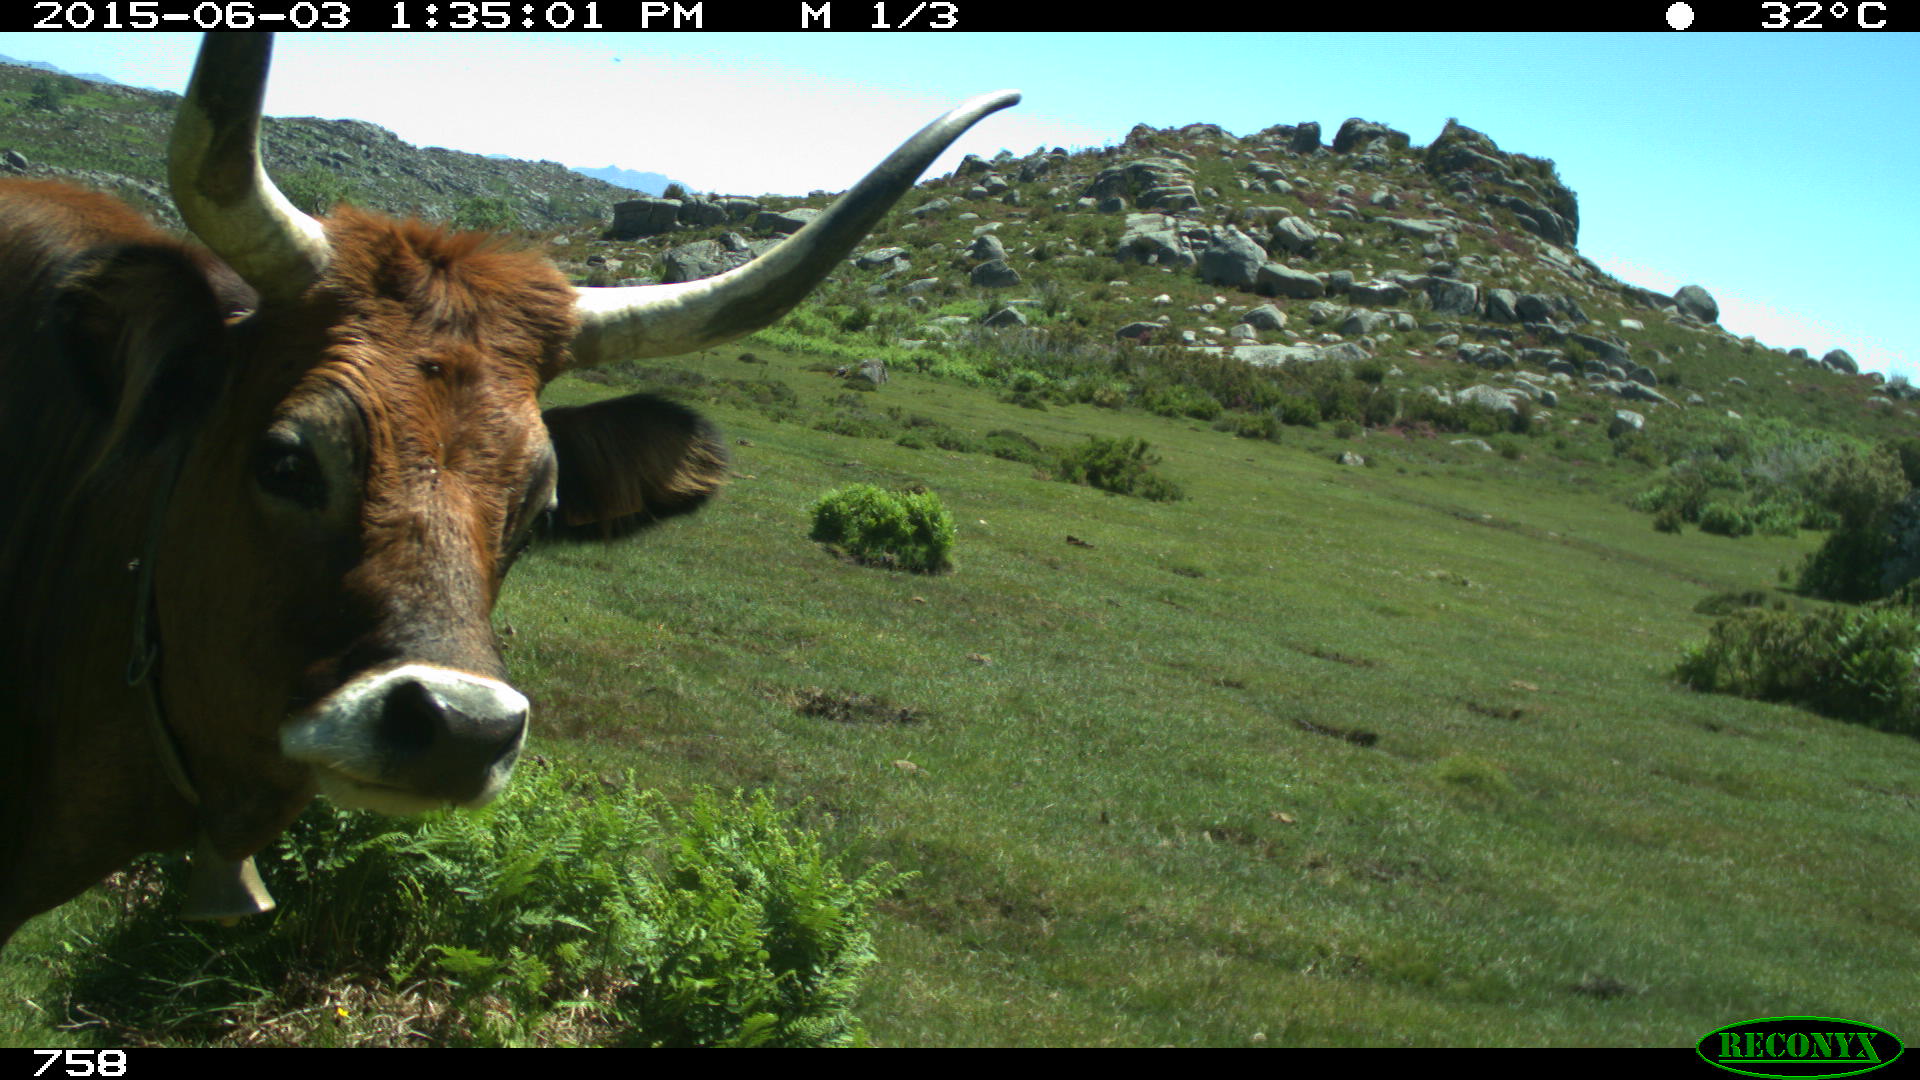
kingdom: Animalia
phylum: Chordata
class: Mammalia
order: Artiodactyla
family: Bovidae
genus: Bos
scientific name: Bos taurus
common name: Domesticated cattle
